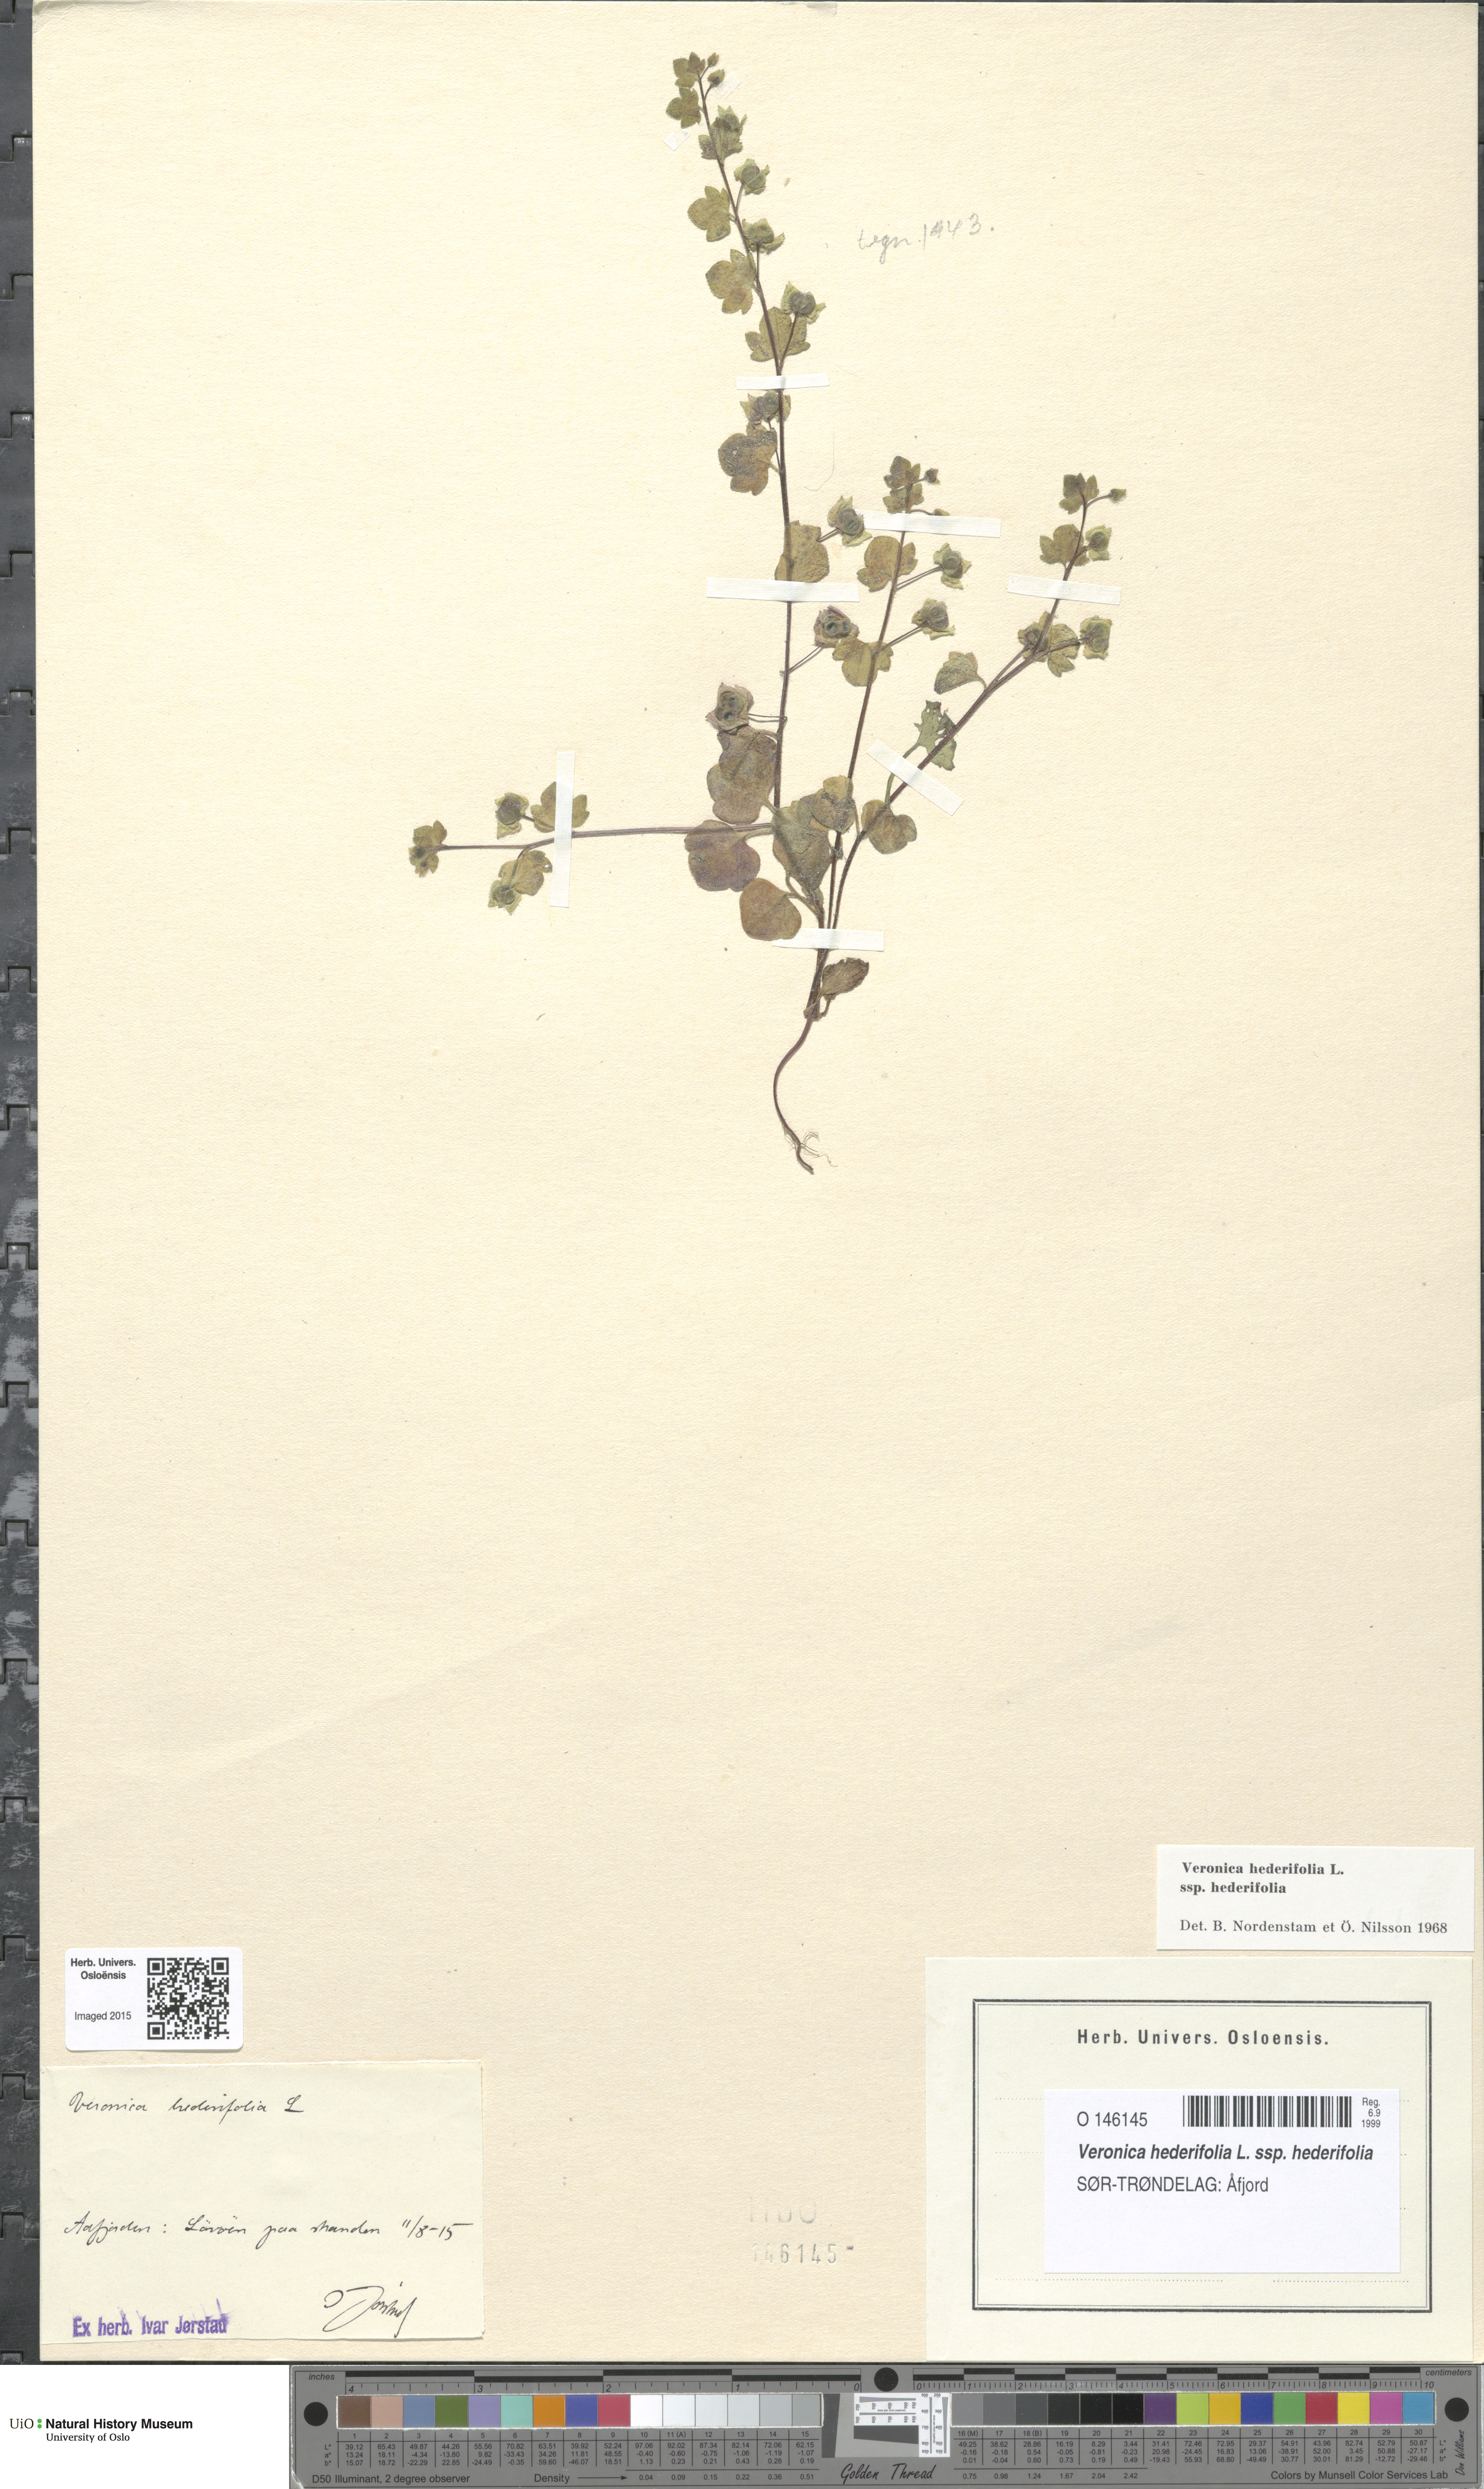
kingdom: Plantae
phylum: Tracheophyta
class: Magnoliopsida
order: Lamiales
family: Plantaginaceae
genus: Veronica
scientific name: Veronica hederifolia
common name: Ivy-leaved speedwell
